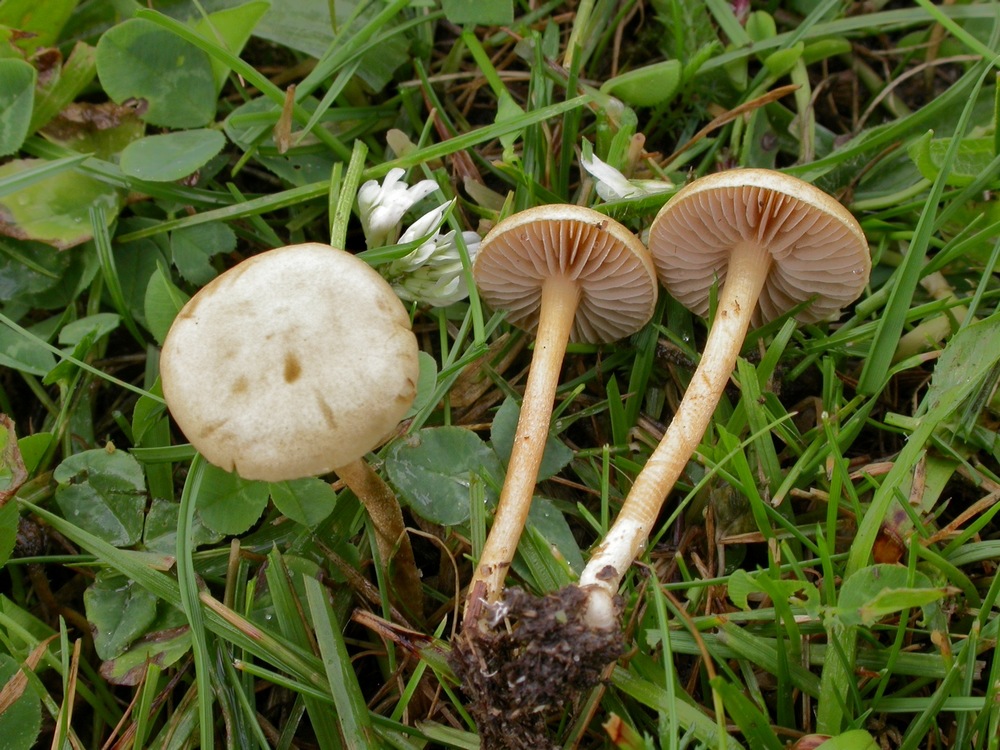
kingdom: Fungi
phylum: Basidiomycota
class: Agaricomycetes
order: Agaricales
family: Strophariaceae
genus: Agrocybe
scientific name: Agrocybe pediades
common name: almindelig agerhat
